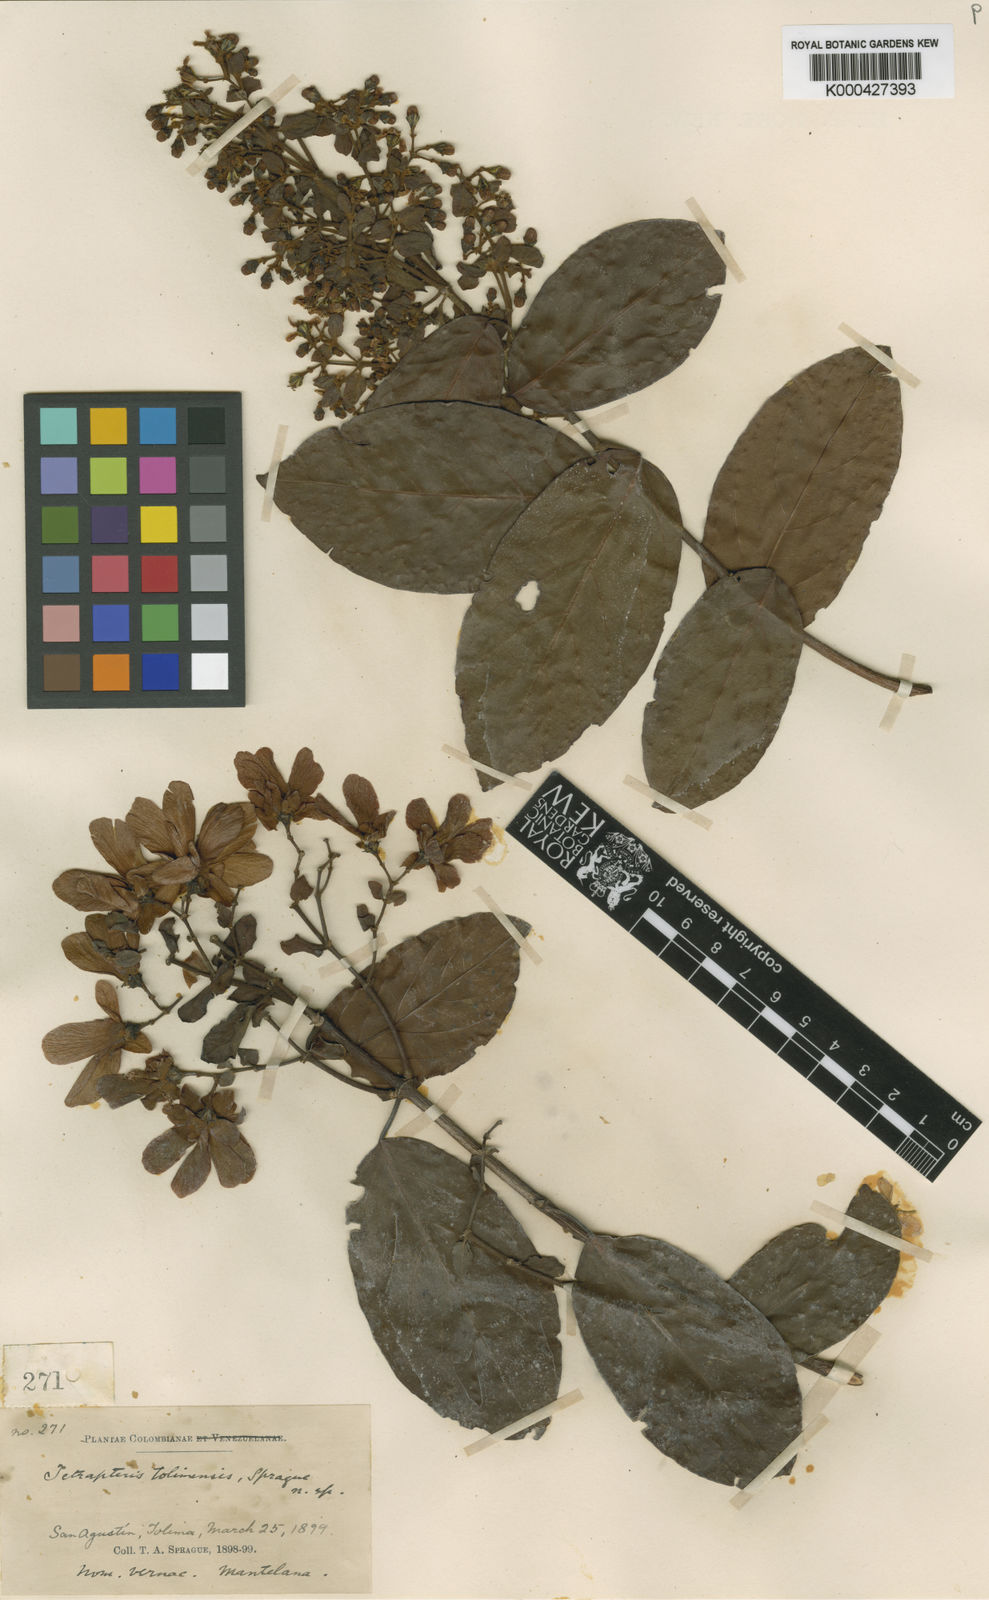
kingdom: Plantae
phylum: Tracheophyta
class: Magnoliopsida
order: Malpighiales
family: Malpighiaceae
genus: Tetrapterys
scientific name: Tetrapterys tolimensis
